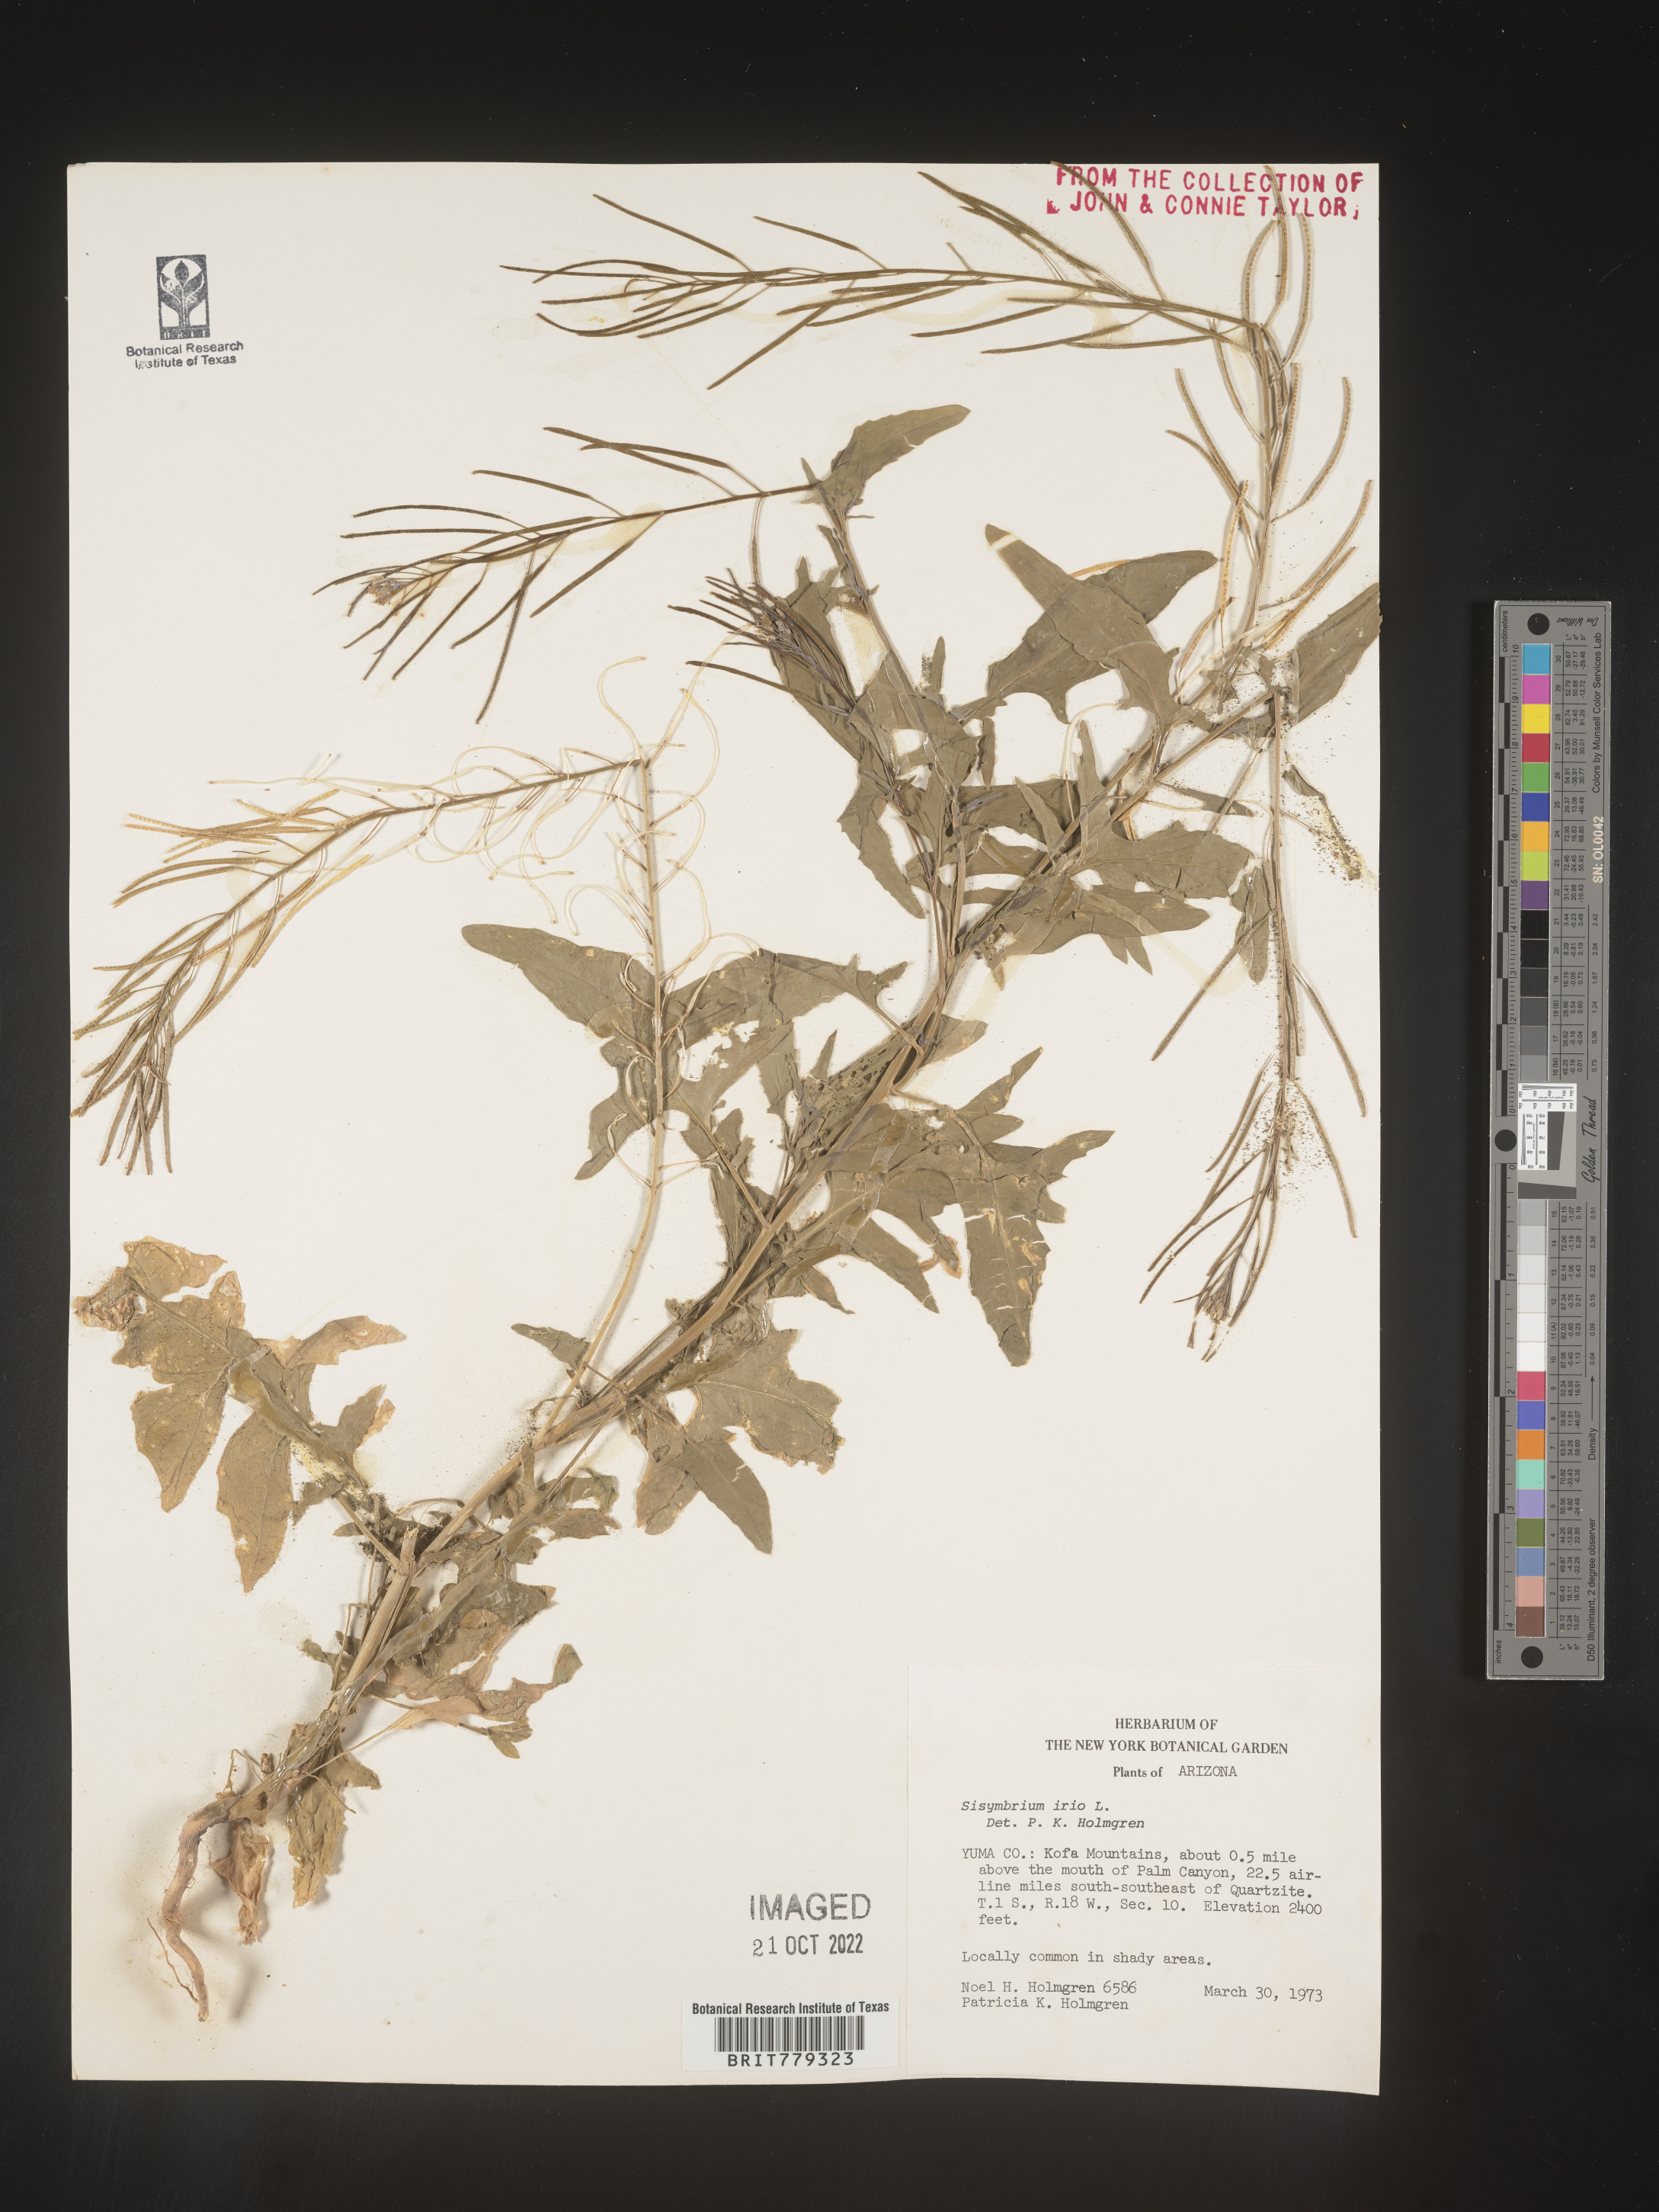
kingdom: Plantae
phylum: Tracheophyta
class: Magnoliopsida
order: Brassicales
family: Brassicaceae
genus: Sisymbrium
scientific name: Sisymbrium
